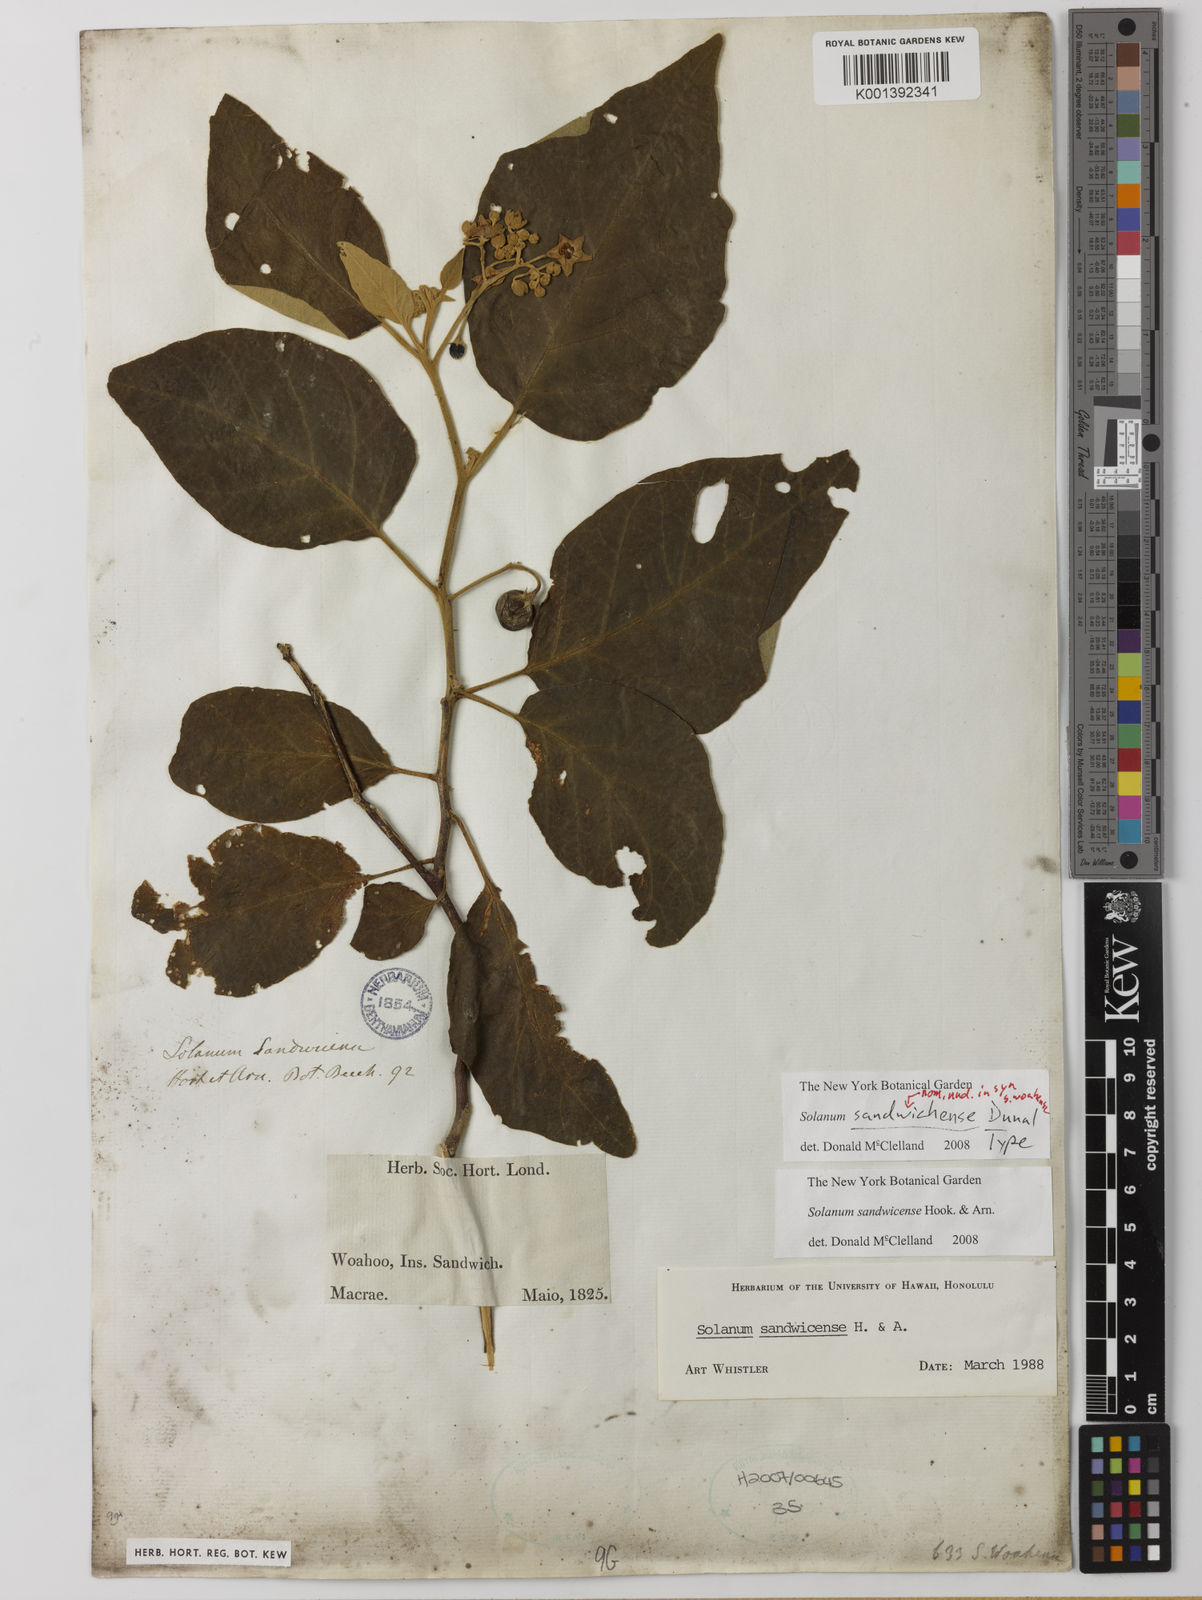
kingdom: Plantae
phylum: Tracheophyta
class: Magnoliopsida
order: Solanales
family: Solanaceae
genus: Solanum
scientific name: Solanum sandwicense
